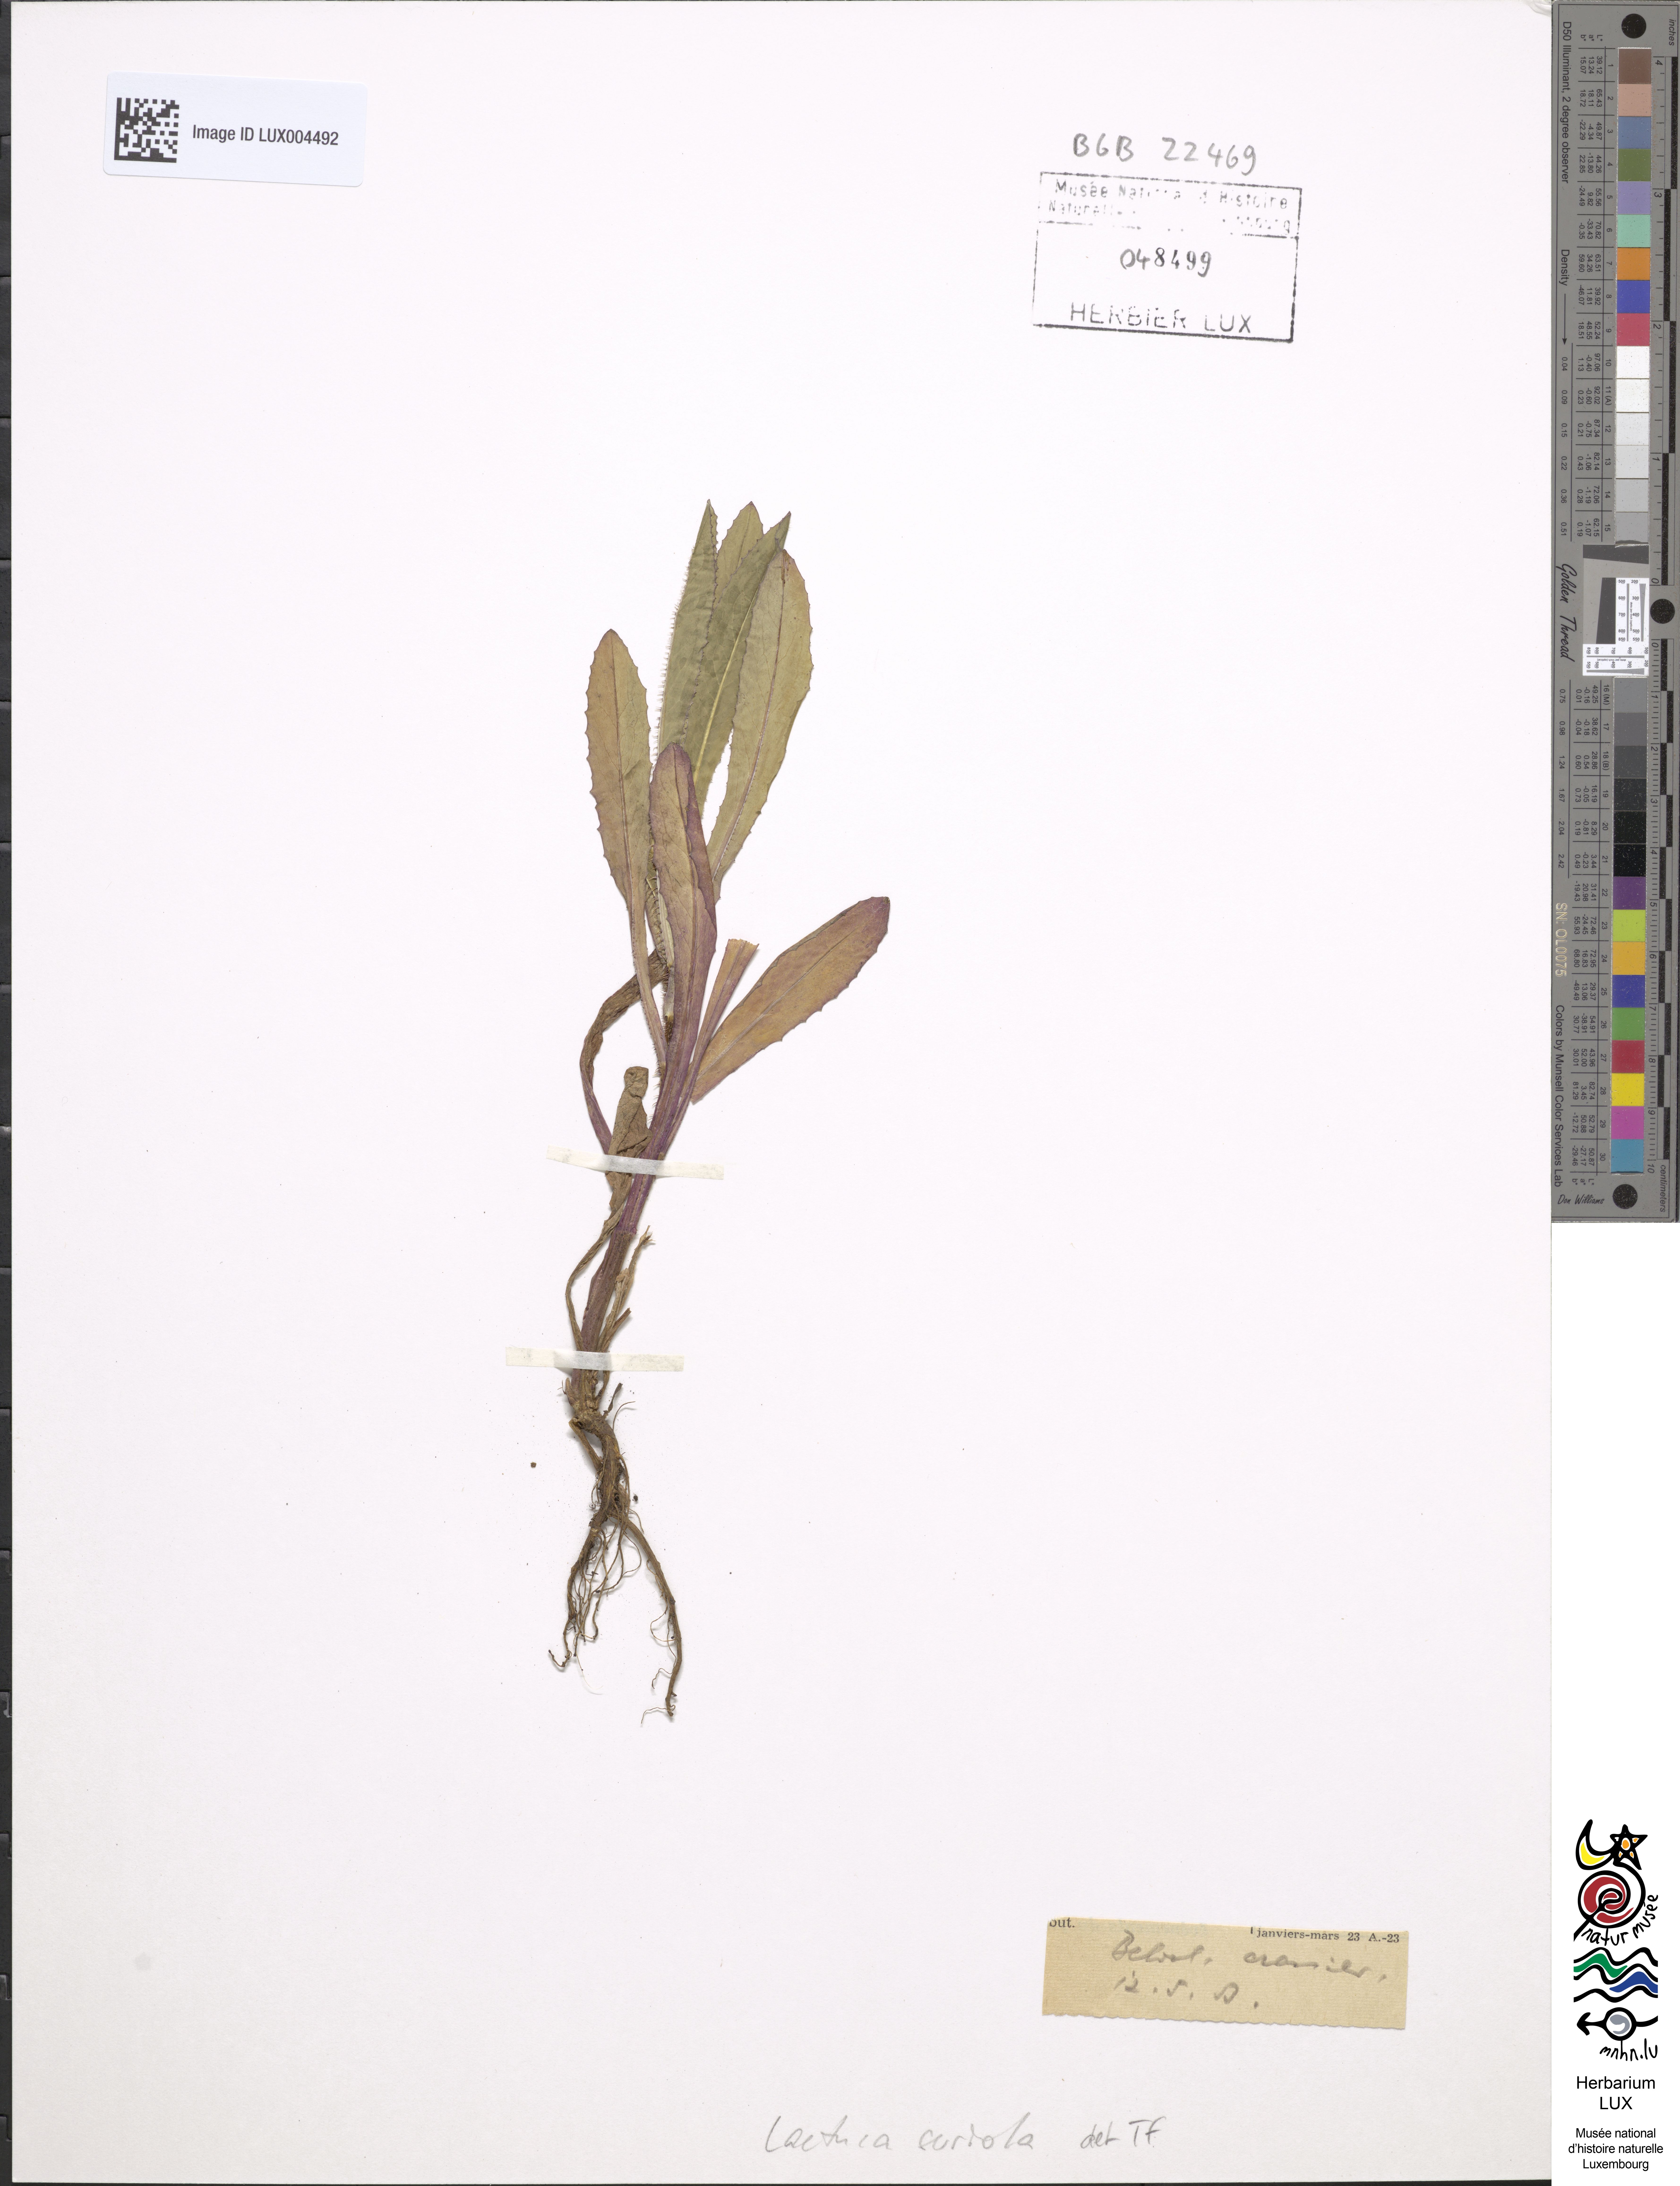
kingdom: Plantae
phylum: Tracheophyta
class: Magnoliopsida
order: Asterales
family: Asteraceae
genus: Lactuca
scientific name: Lactuca serriola
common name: Prickly lettuce
